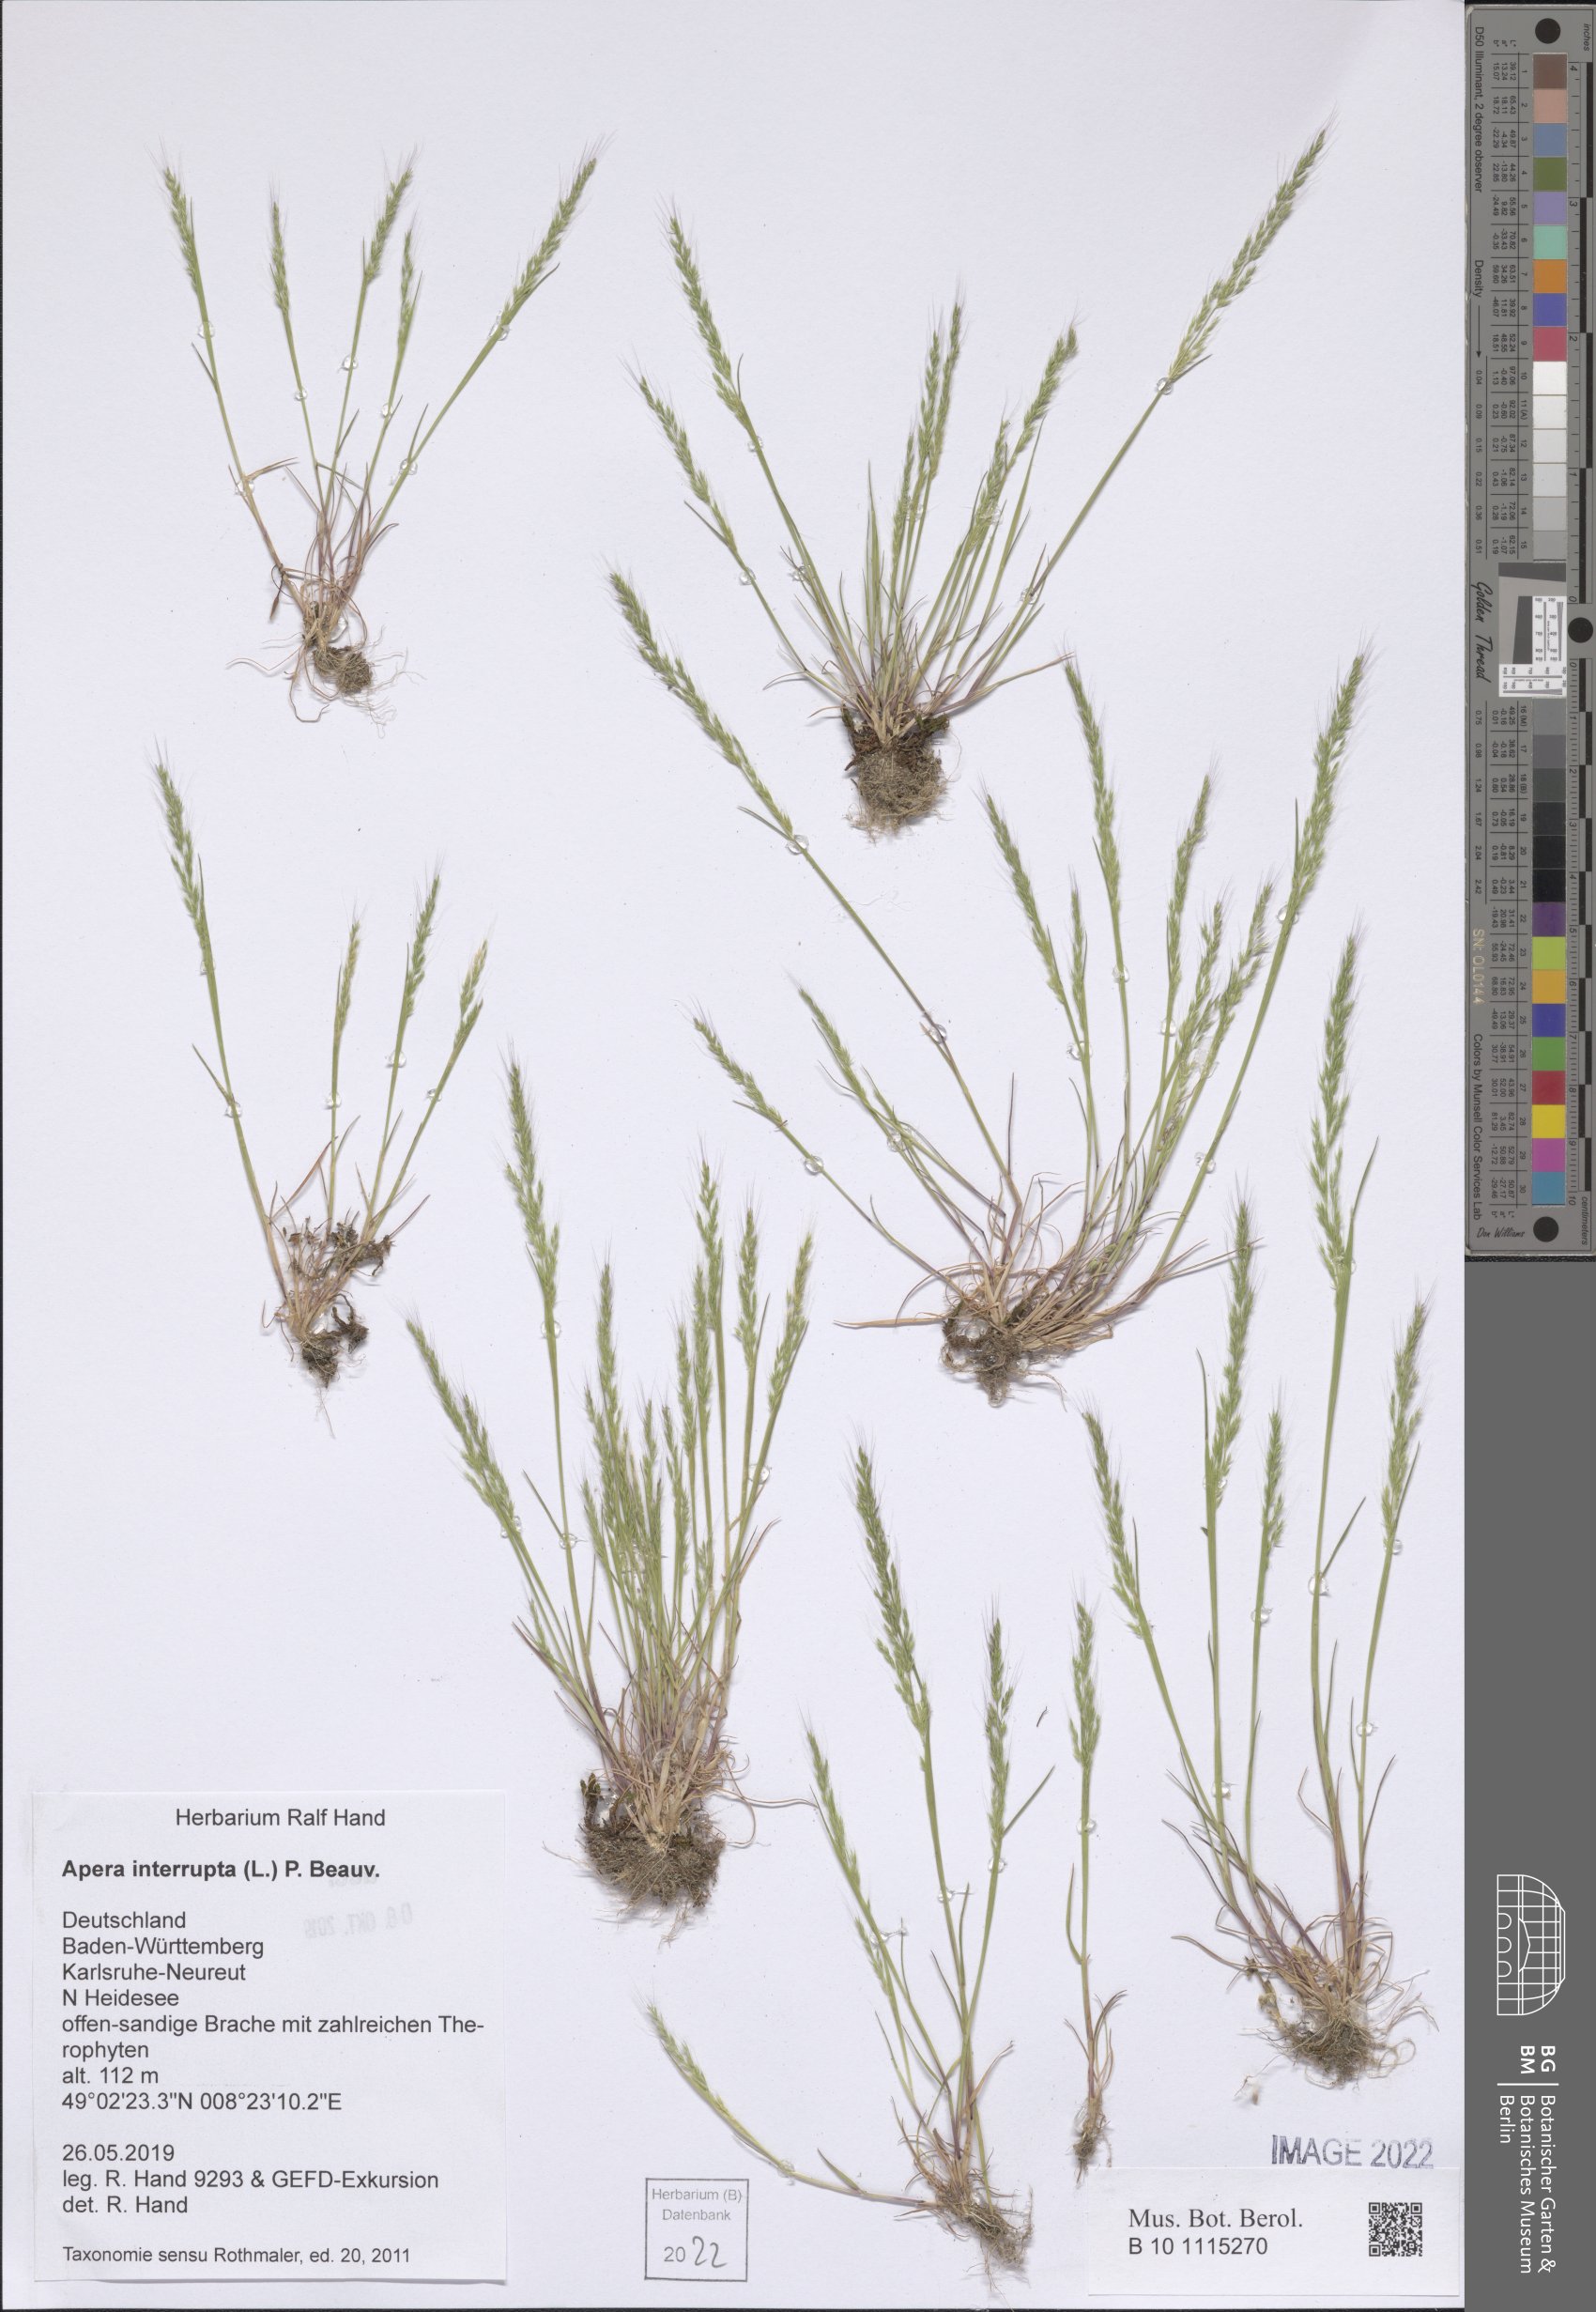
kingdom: Plantae
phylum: Tracheophyta
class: Liliopsida
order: Poales
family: Poaceae
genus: Apera
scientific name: Apera interrupta
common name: Dense silky-bent
